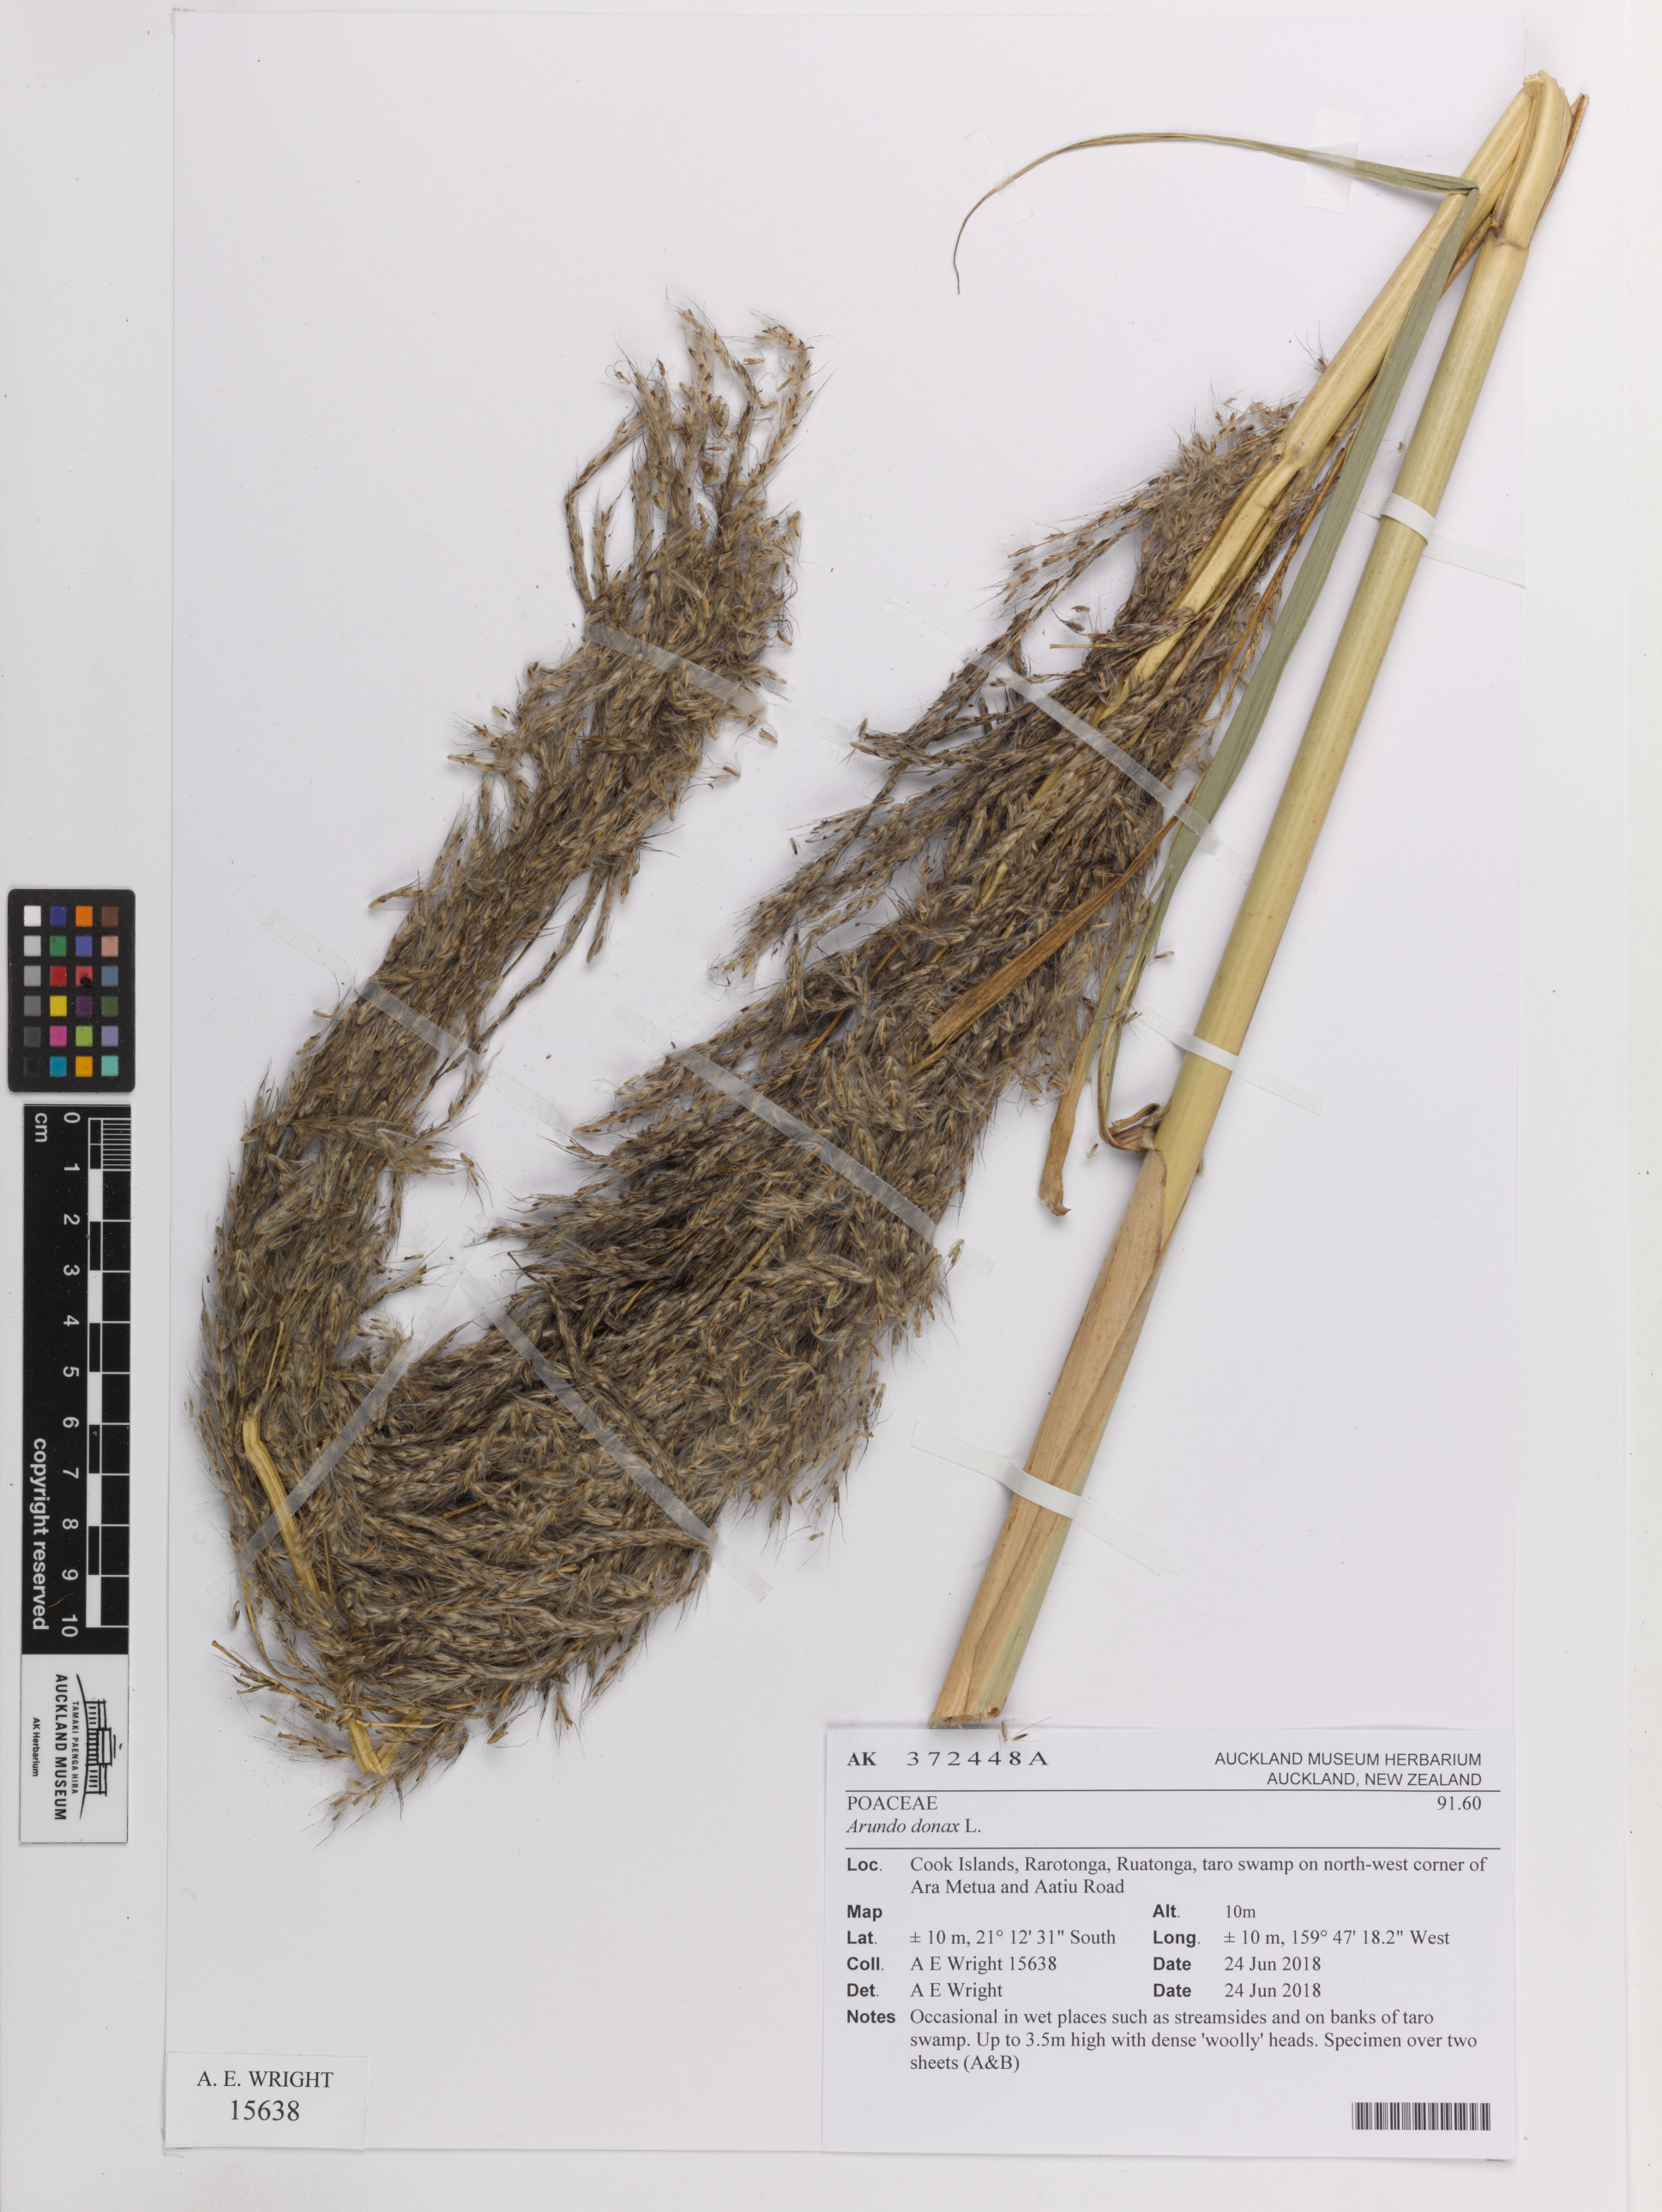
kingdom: Plantae
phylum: Tracheophyta
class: Liliopsida
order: Poales
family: Poaceae
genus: Arundo
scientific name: Arundo donax
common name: Giant reed
